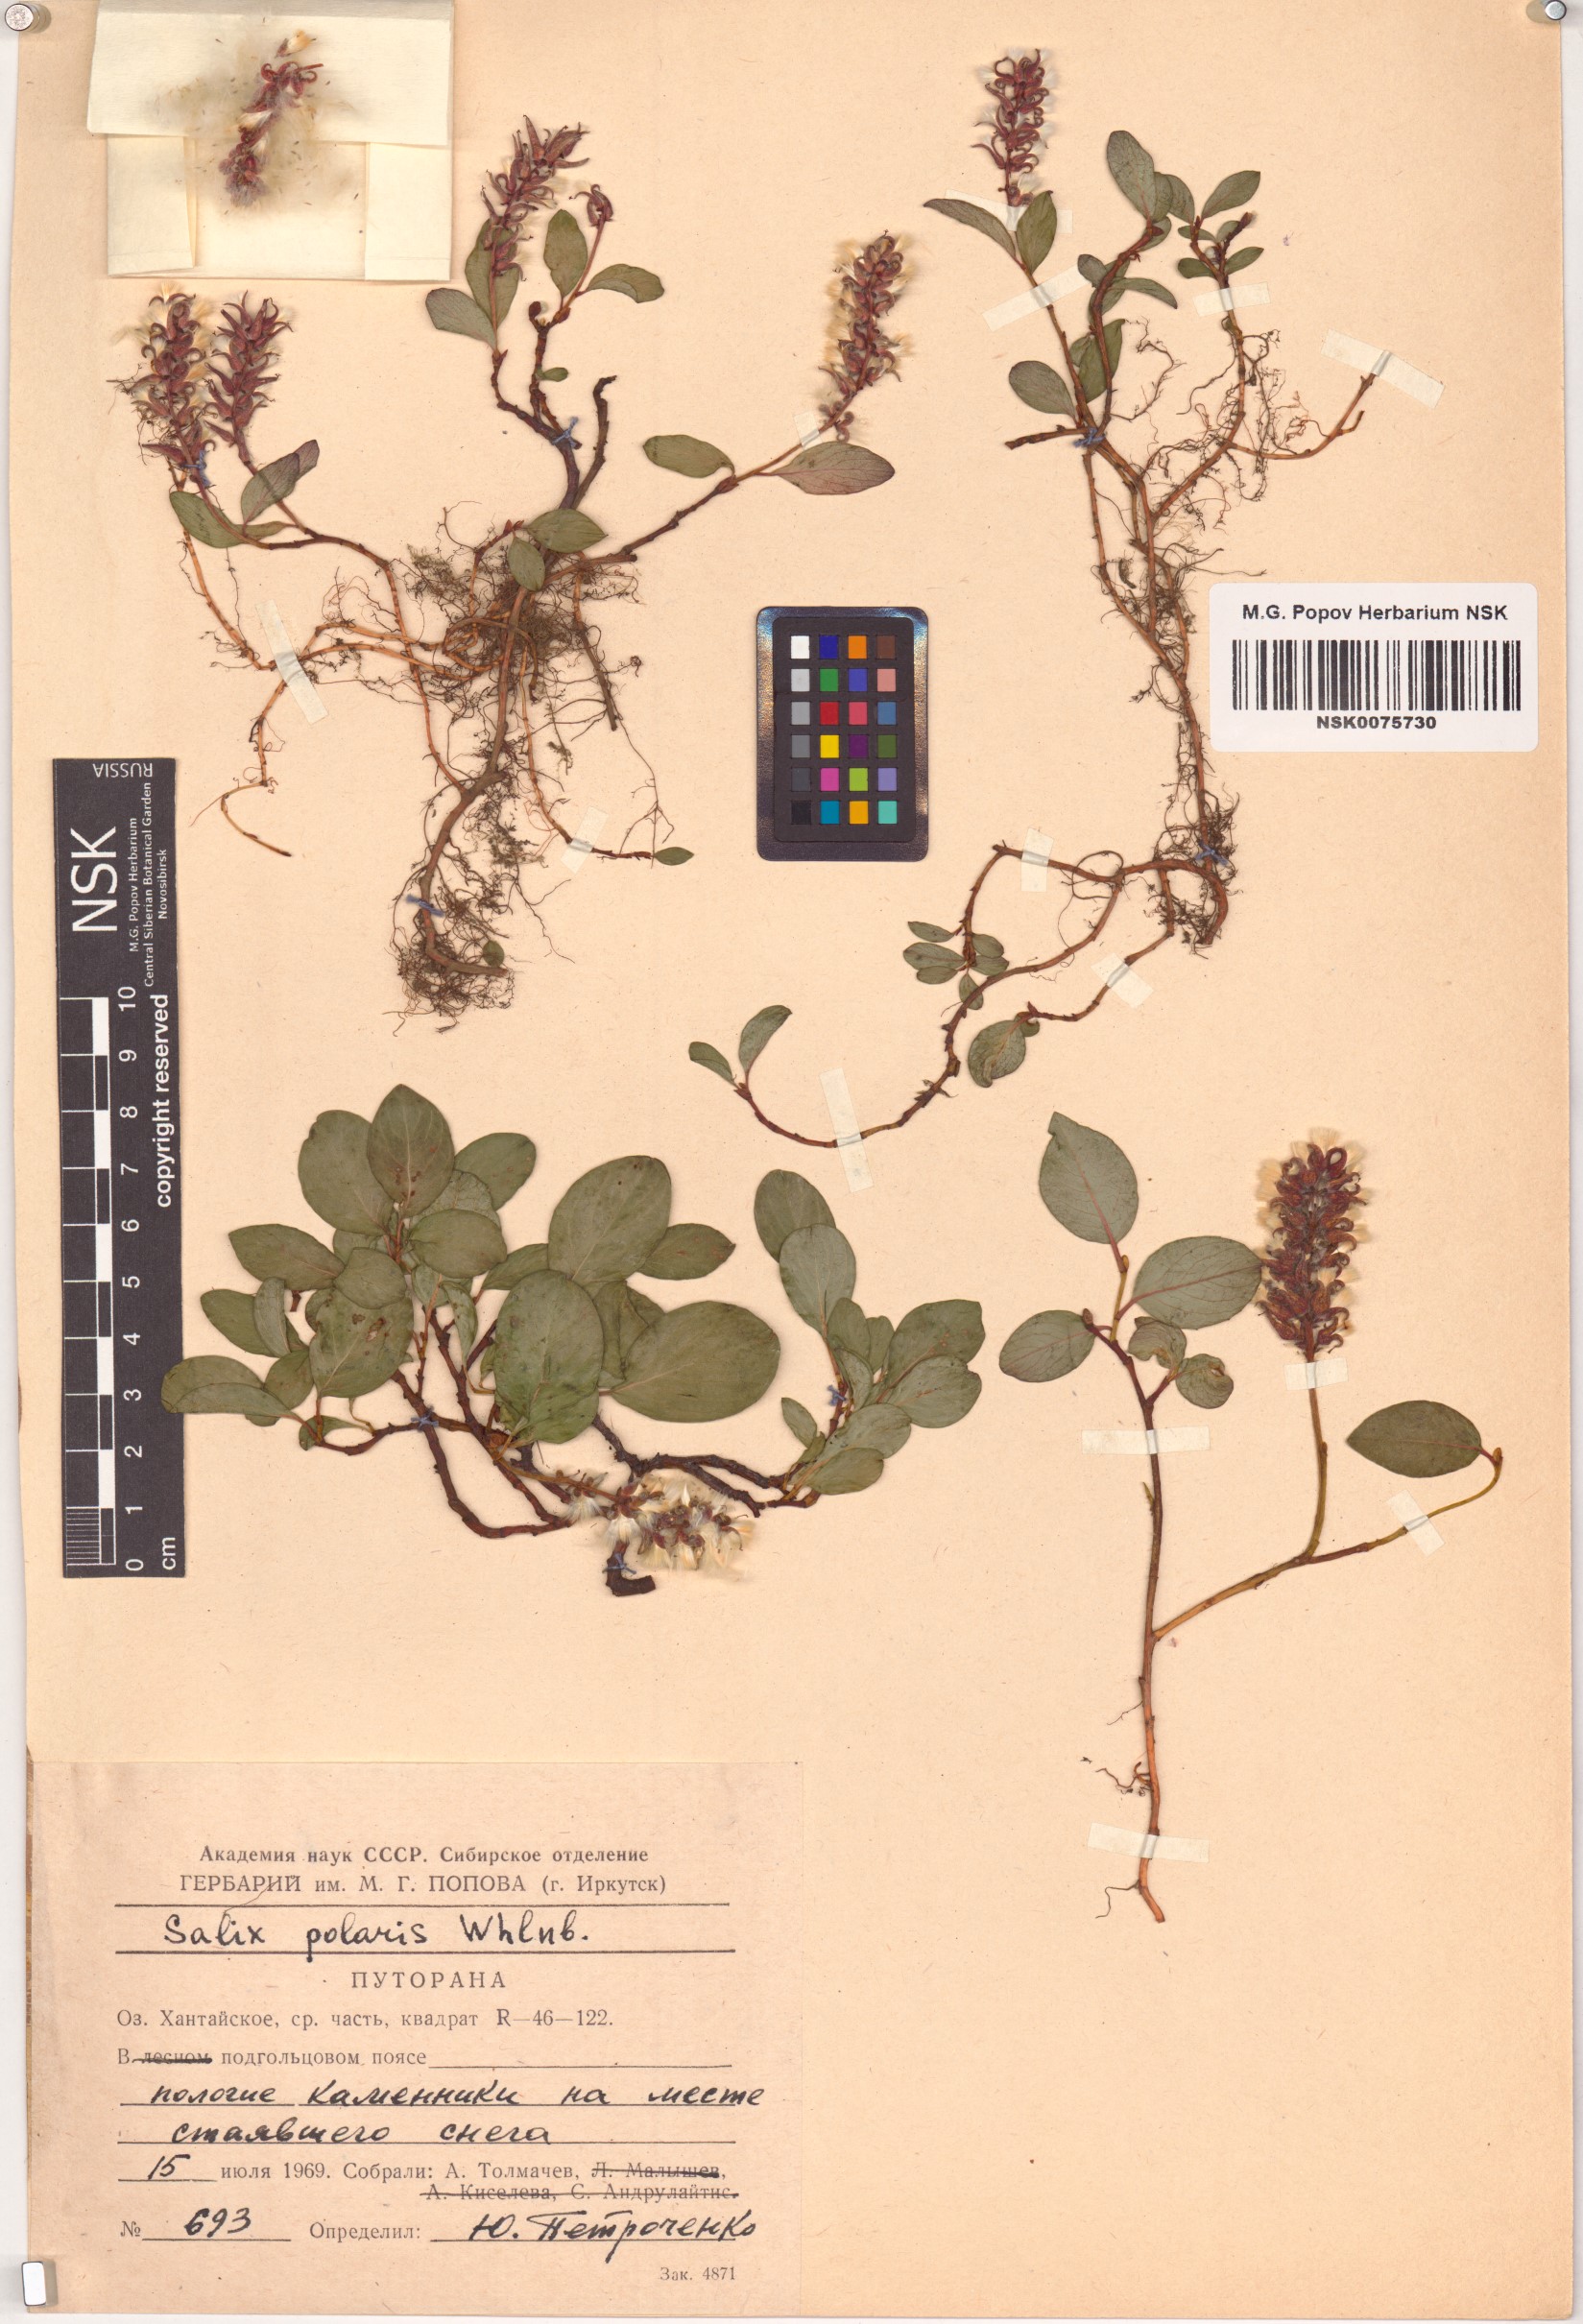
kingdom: Plantae
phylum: Tracheophyta
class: Magnoliopsida
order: Malpighiales
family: Salicaceae
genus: Salix
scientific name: Salix polaris
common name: Polar willow
